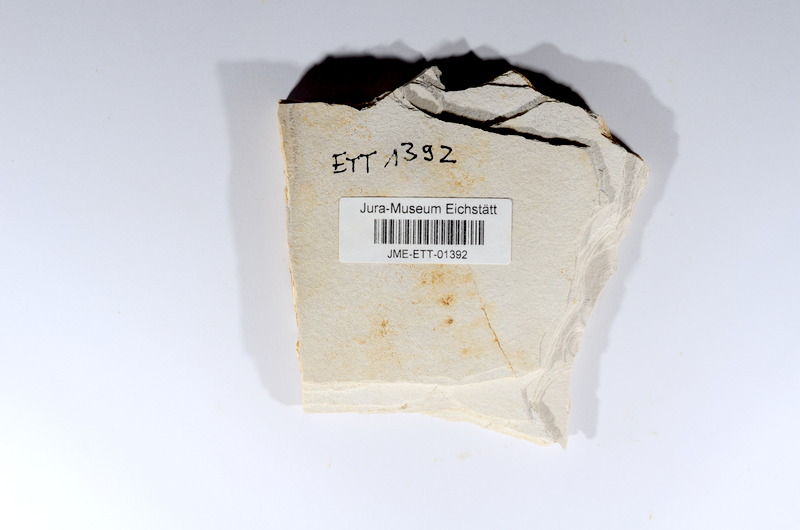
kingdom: Animalia
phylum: Chordata
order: Salmoniformes
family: Orthogonikleithridae
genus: Orthogonikleithrus
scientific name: Orthogonikleithrus hoelli
